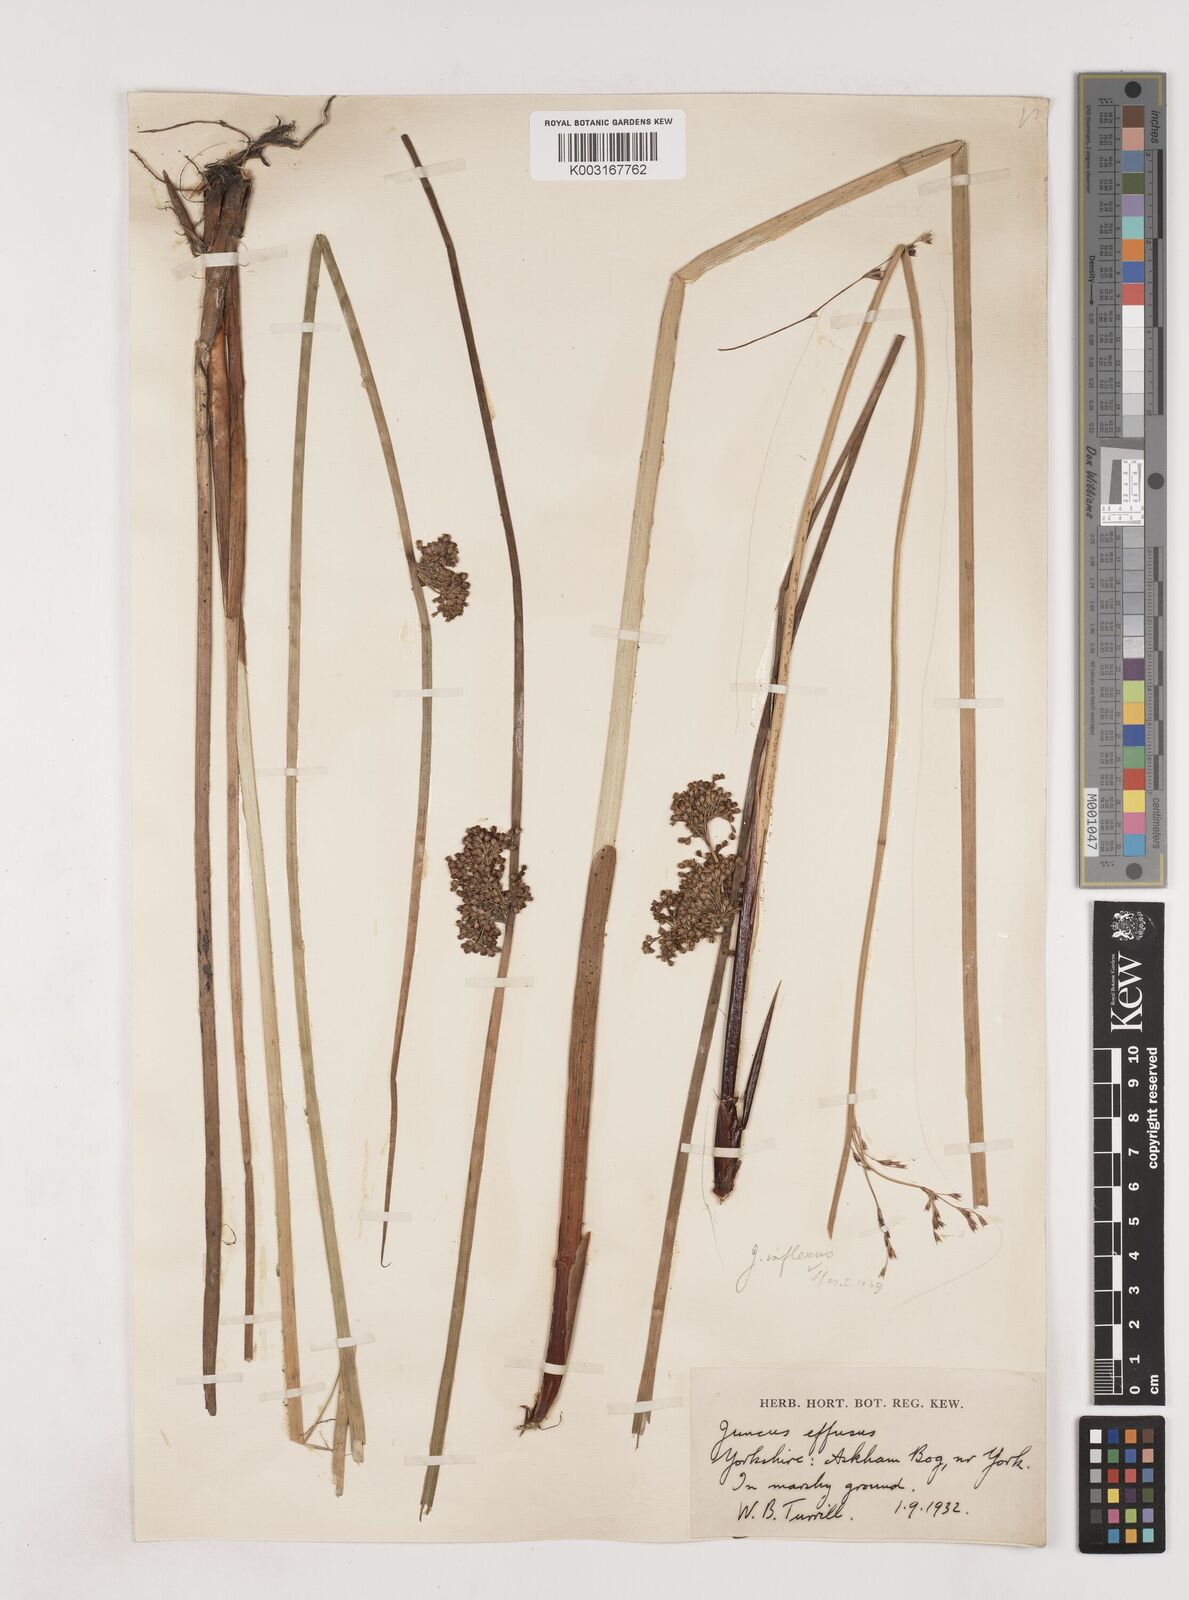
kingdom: Plantae
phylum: Tracheophyta
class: Liliopsida
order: Poales
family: Juncaceae
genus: Juncus
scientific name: Juncus effusus
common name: Soft rush
